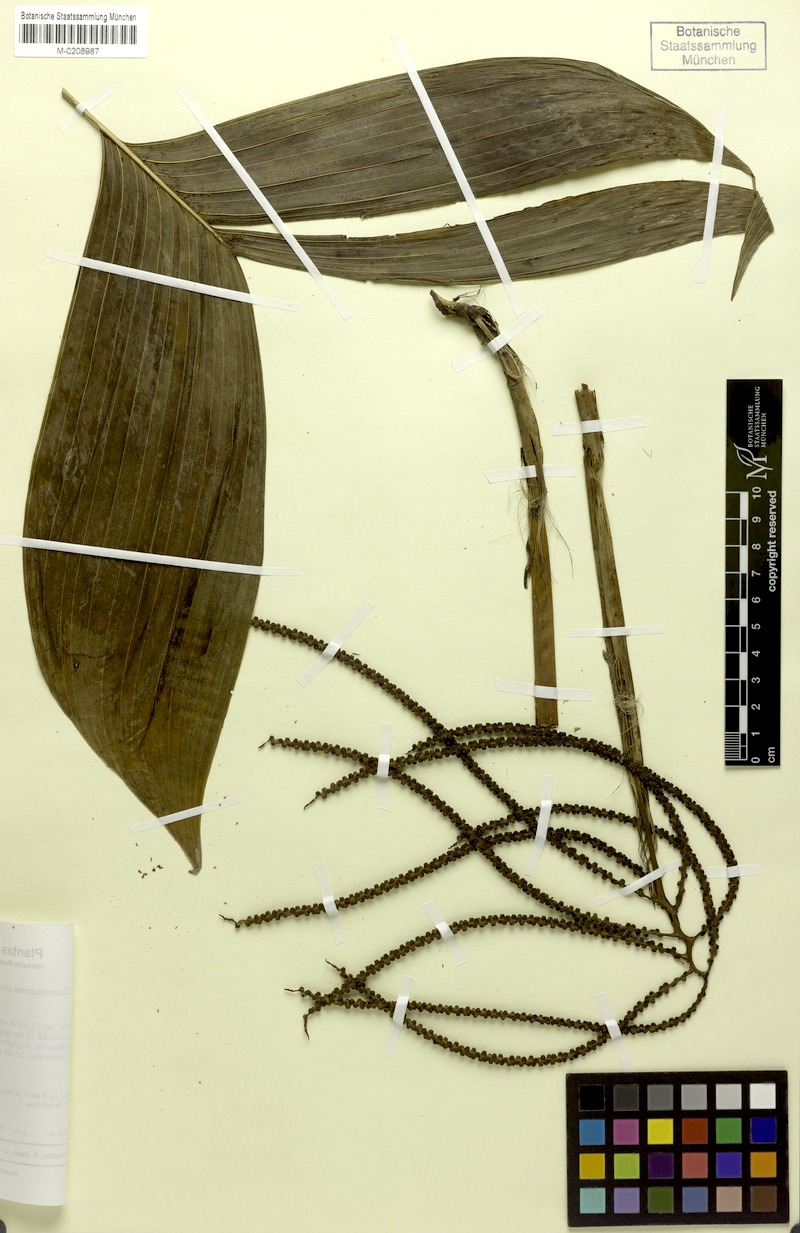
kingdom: Plantae
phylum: Tracheophyta
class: Liliopsida
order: Arecales
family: Arecaceae
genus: Chamaedorea
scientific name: Chamaedorea pinnatifrons
